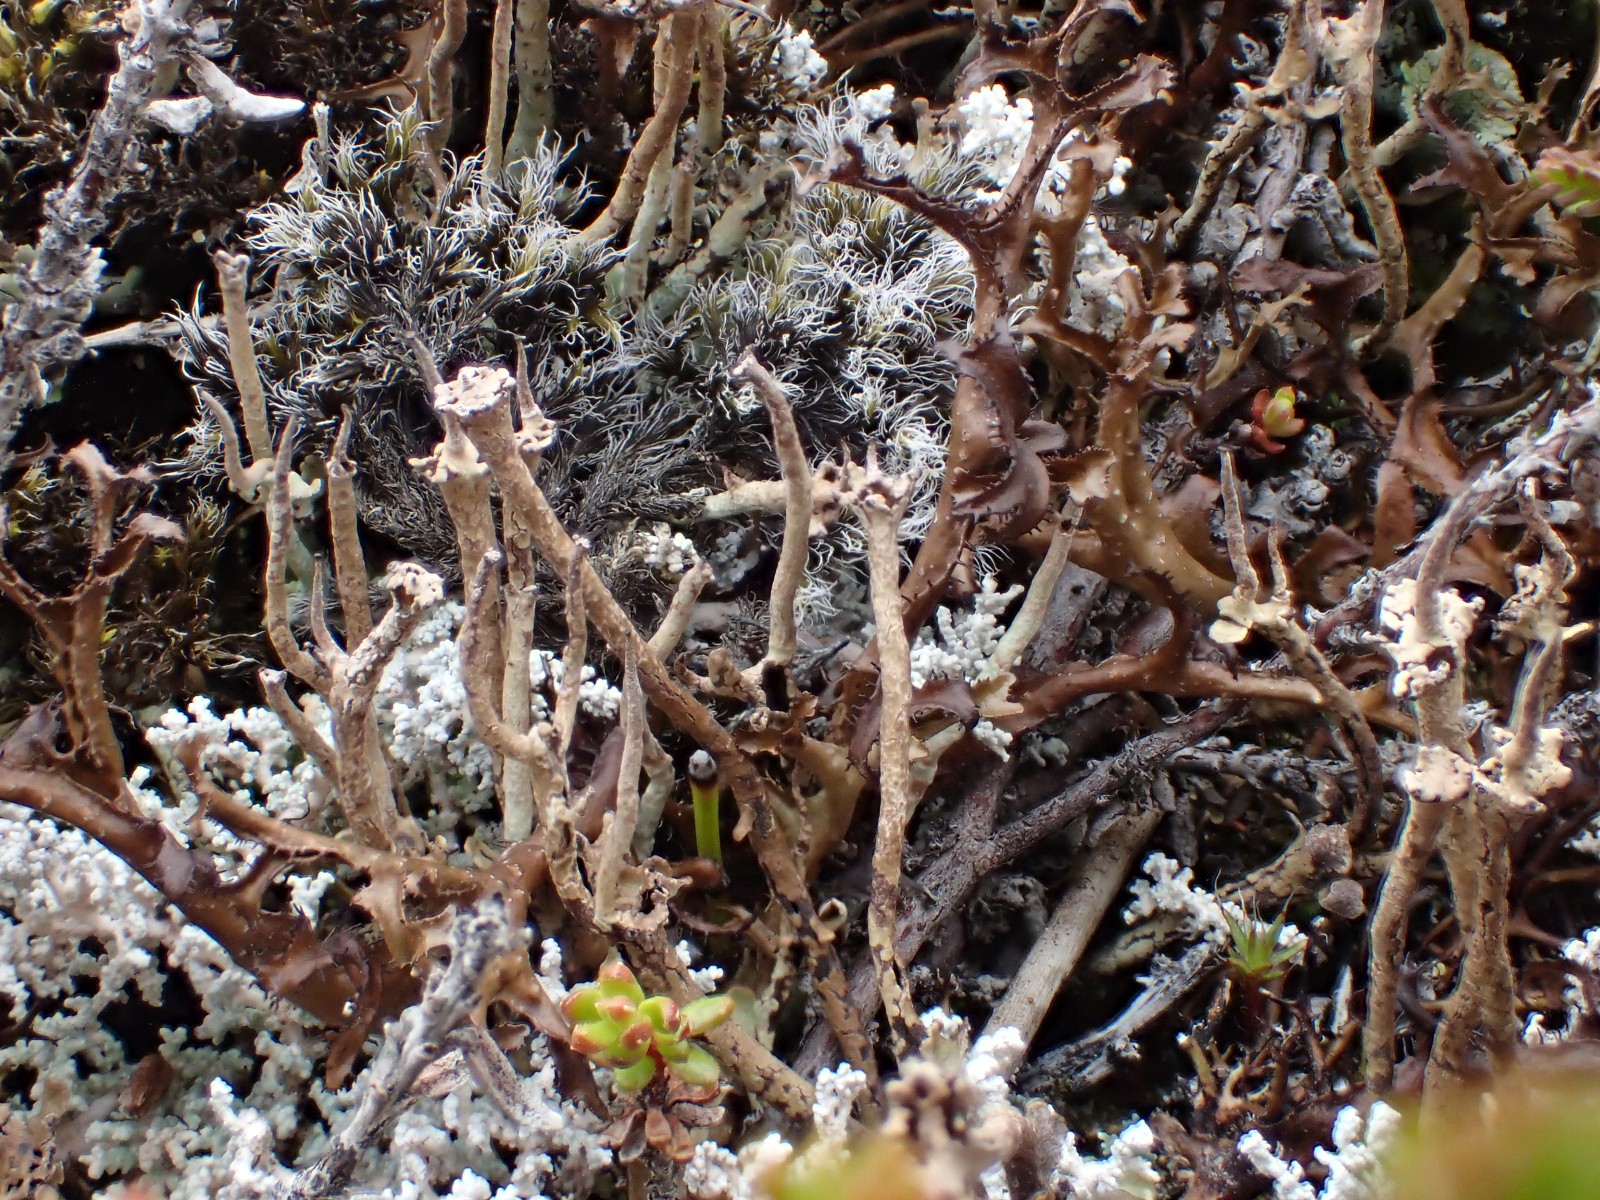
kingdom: Fungi
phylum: Ascomycota
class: Lecanoromycetes
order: Lecanorales
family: Cladoniaceae
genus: Cladonia
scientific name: Cladonia gracilis
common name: slank bægerlav
